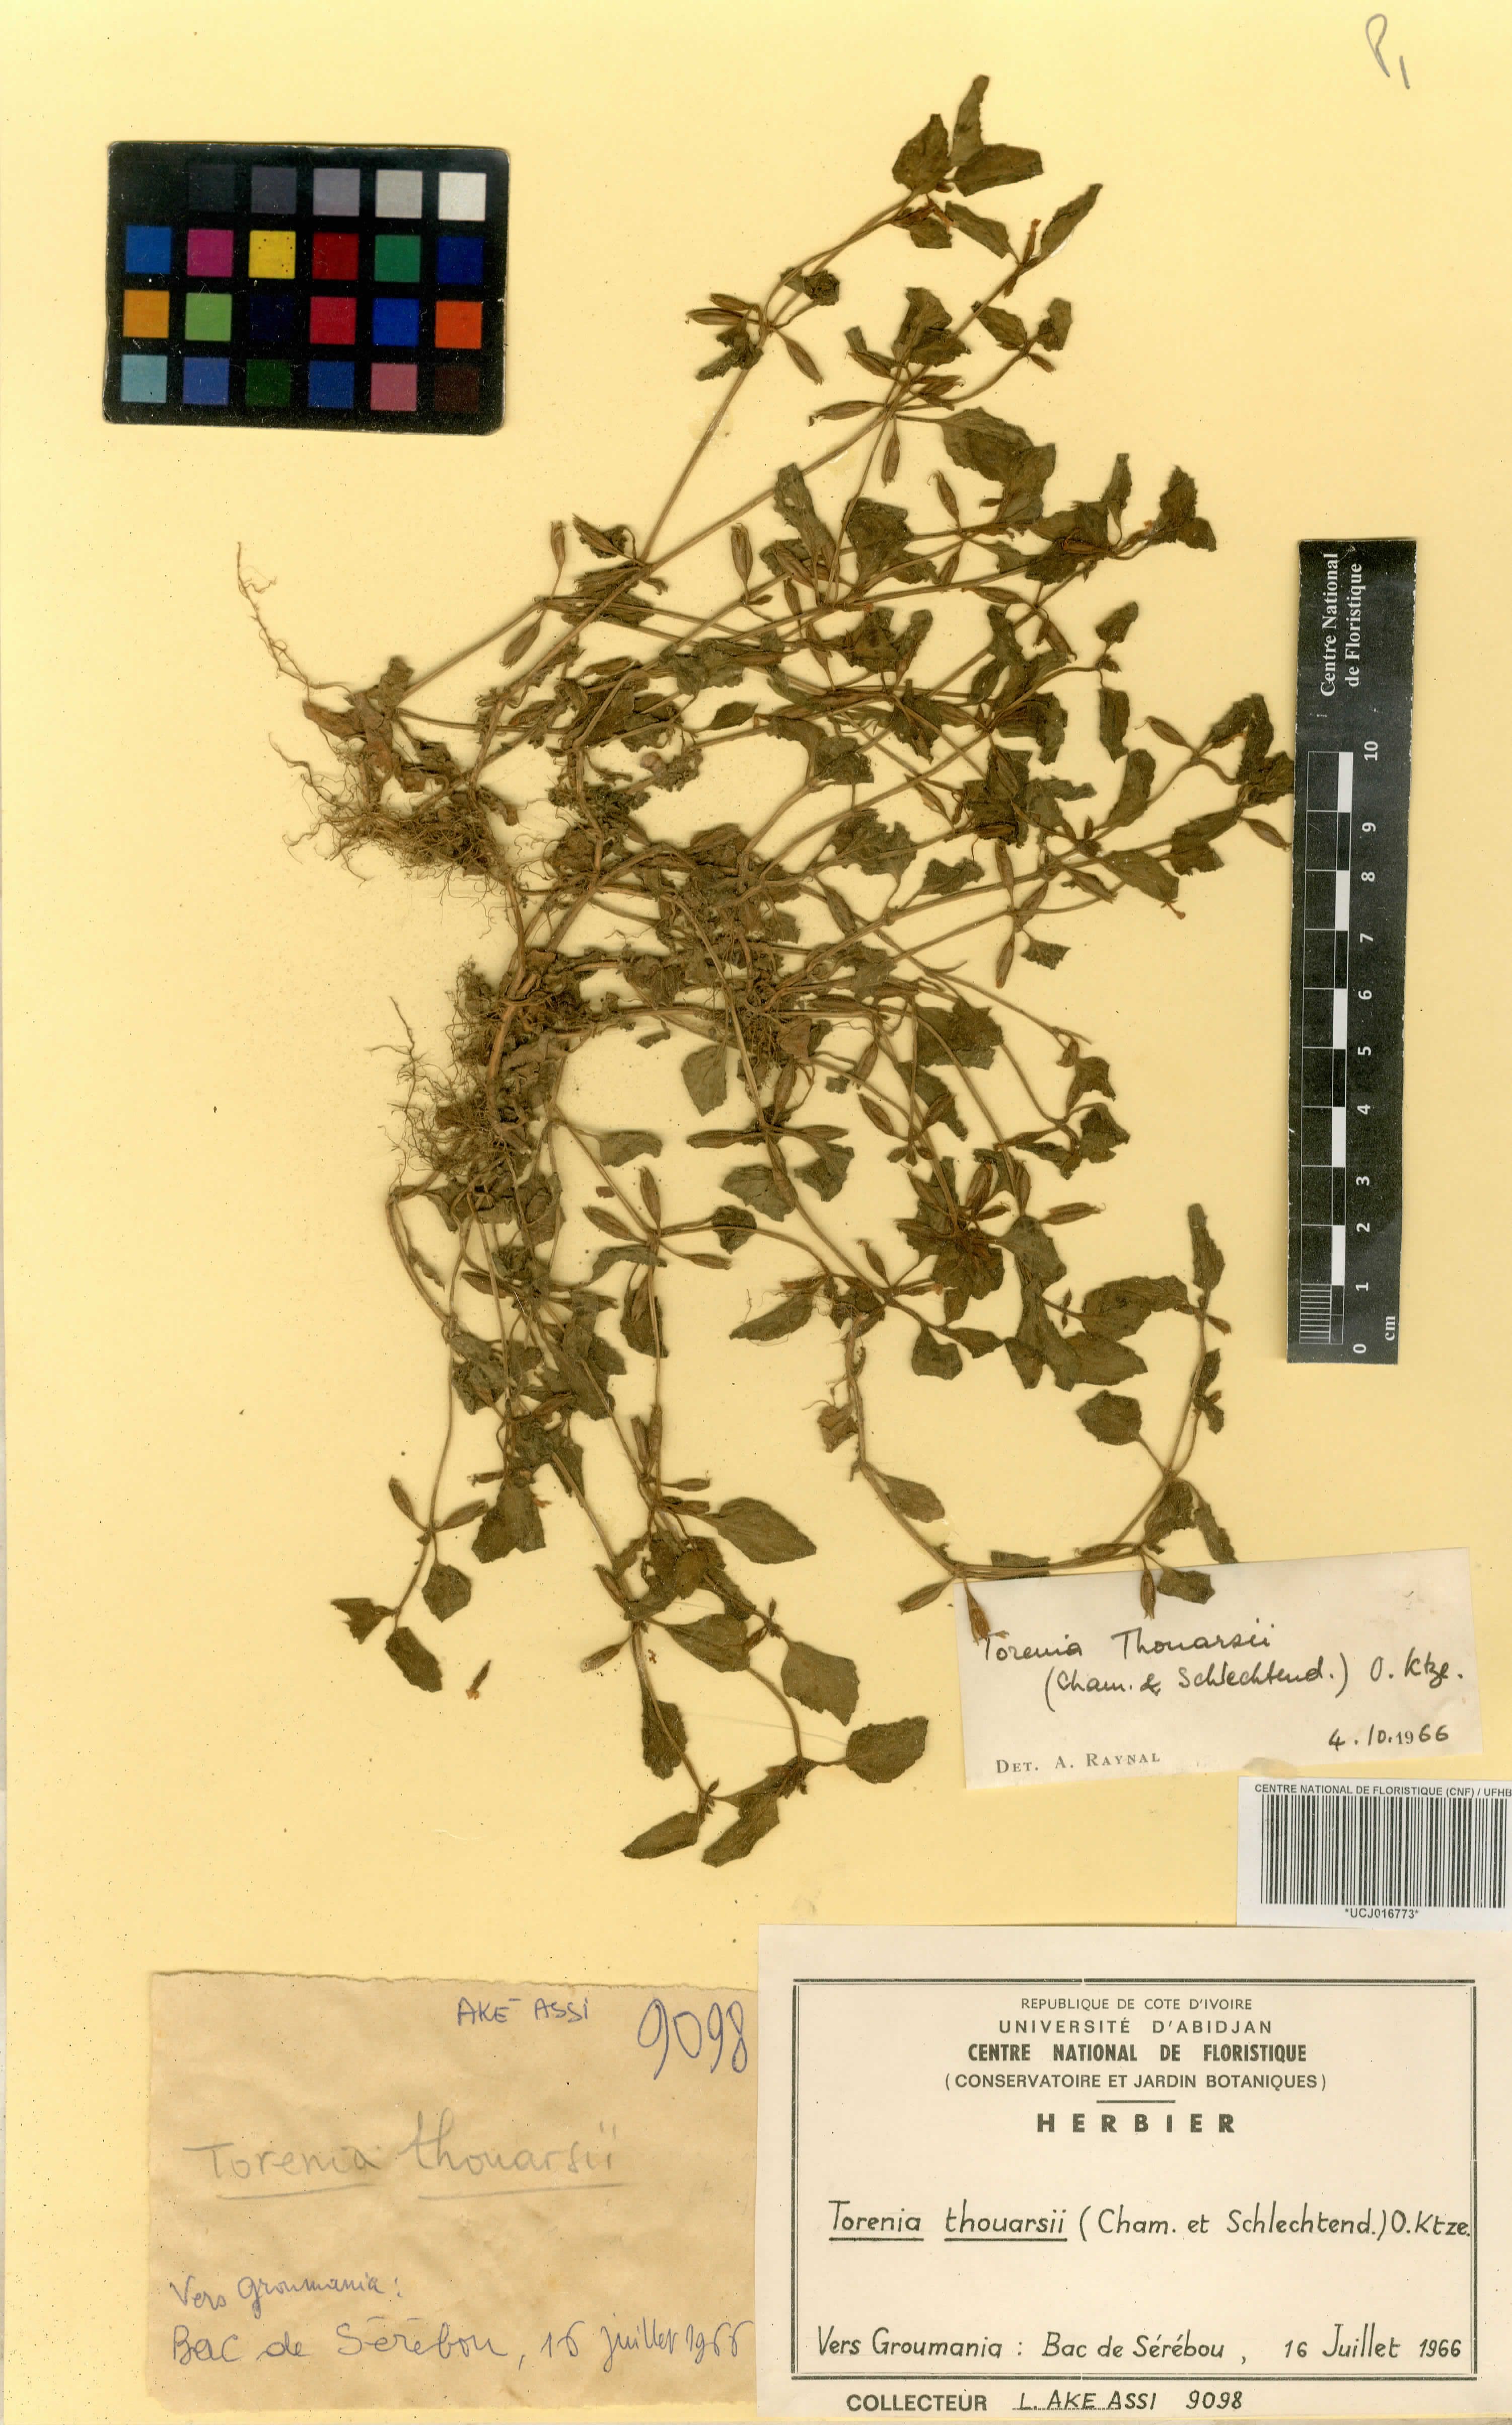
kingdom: Plantae
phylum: Tracheophyta
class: Magnoliopsida
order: Lamiales
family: Scrophulariaceae
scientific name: Scrophulariaceae
